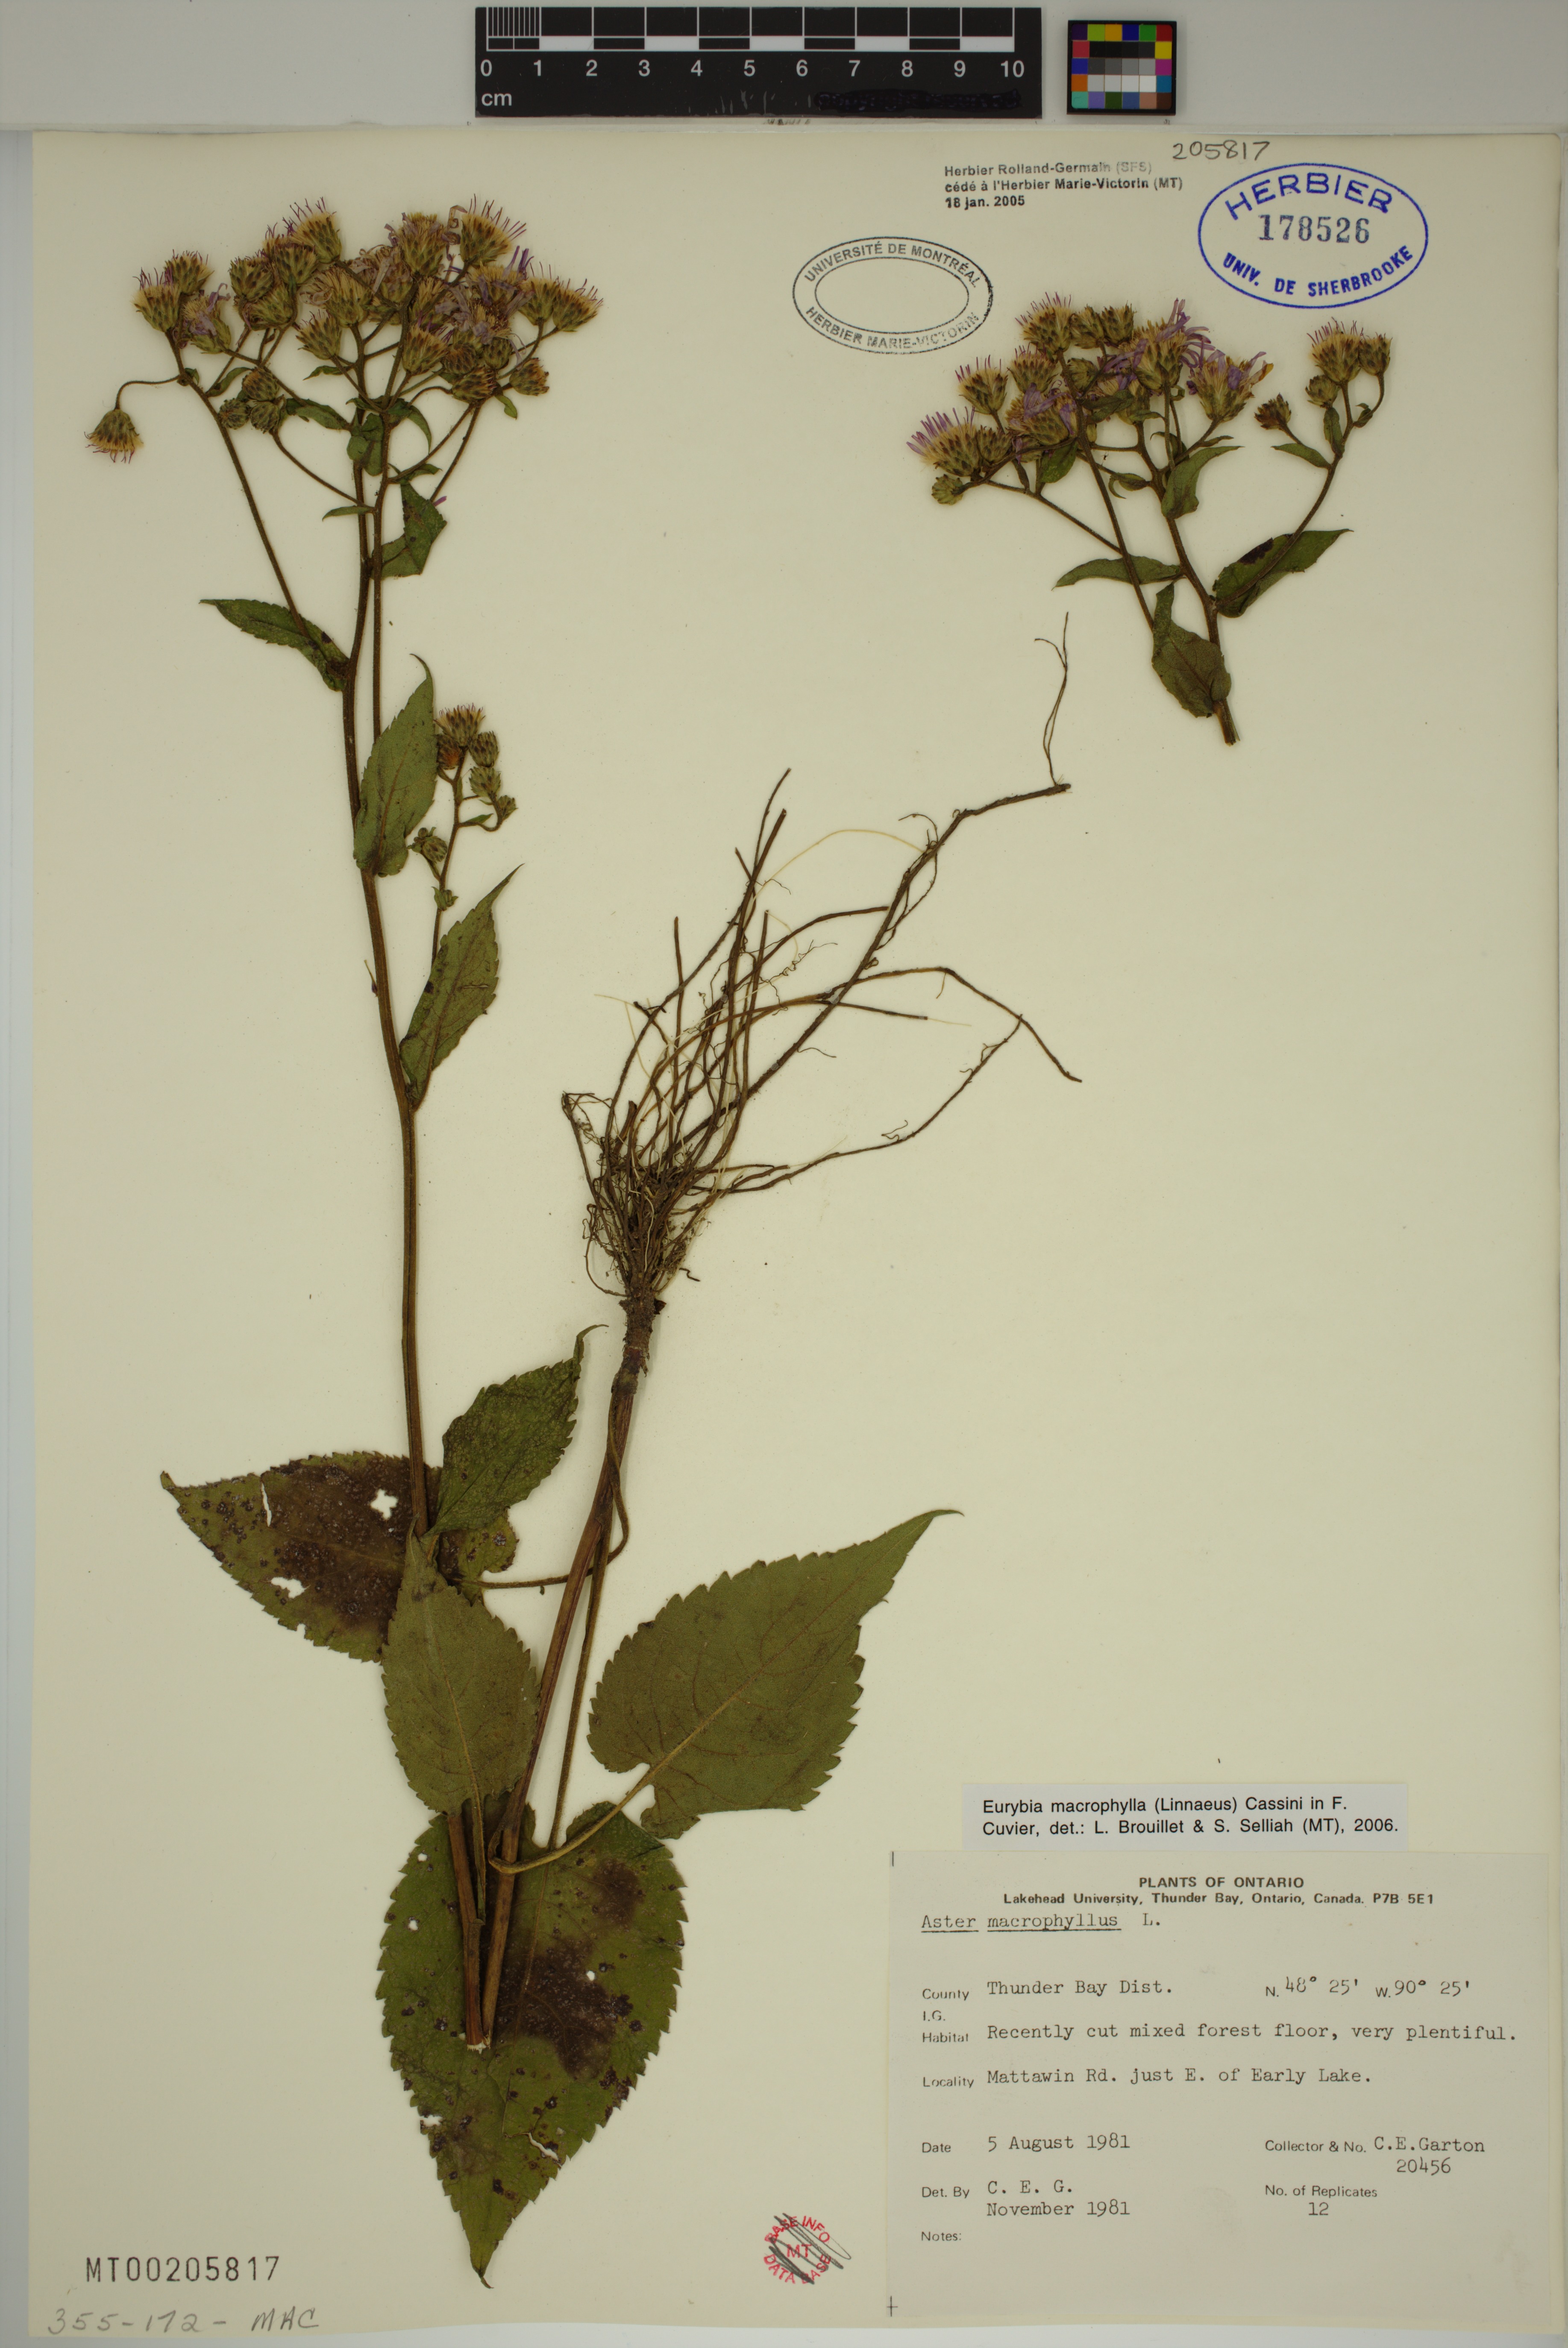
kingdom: Plantae
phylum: Tracheophyta
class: Magnoliopsida
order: Asterales
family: Asteraceae
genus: Eurybia
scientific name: Eurybia macrophylla
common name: Big-leaved aster
